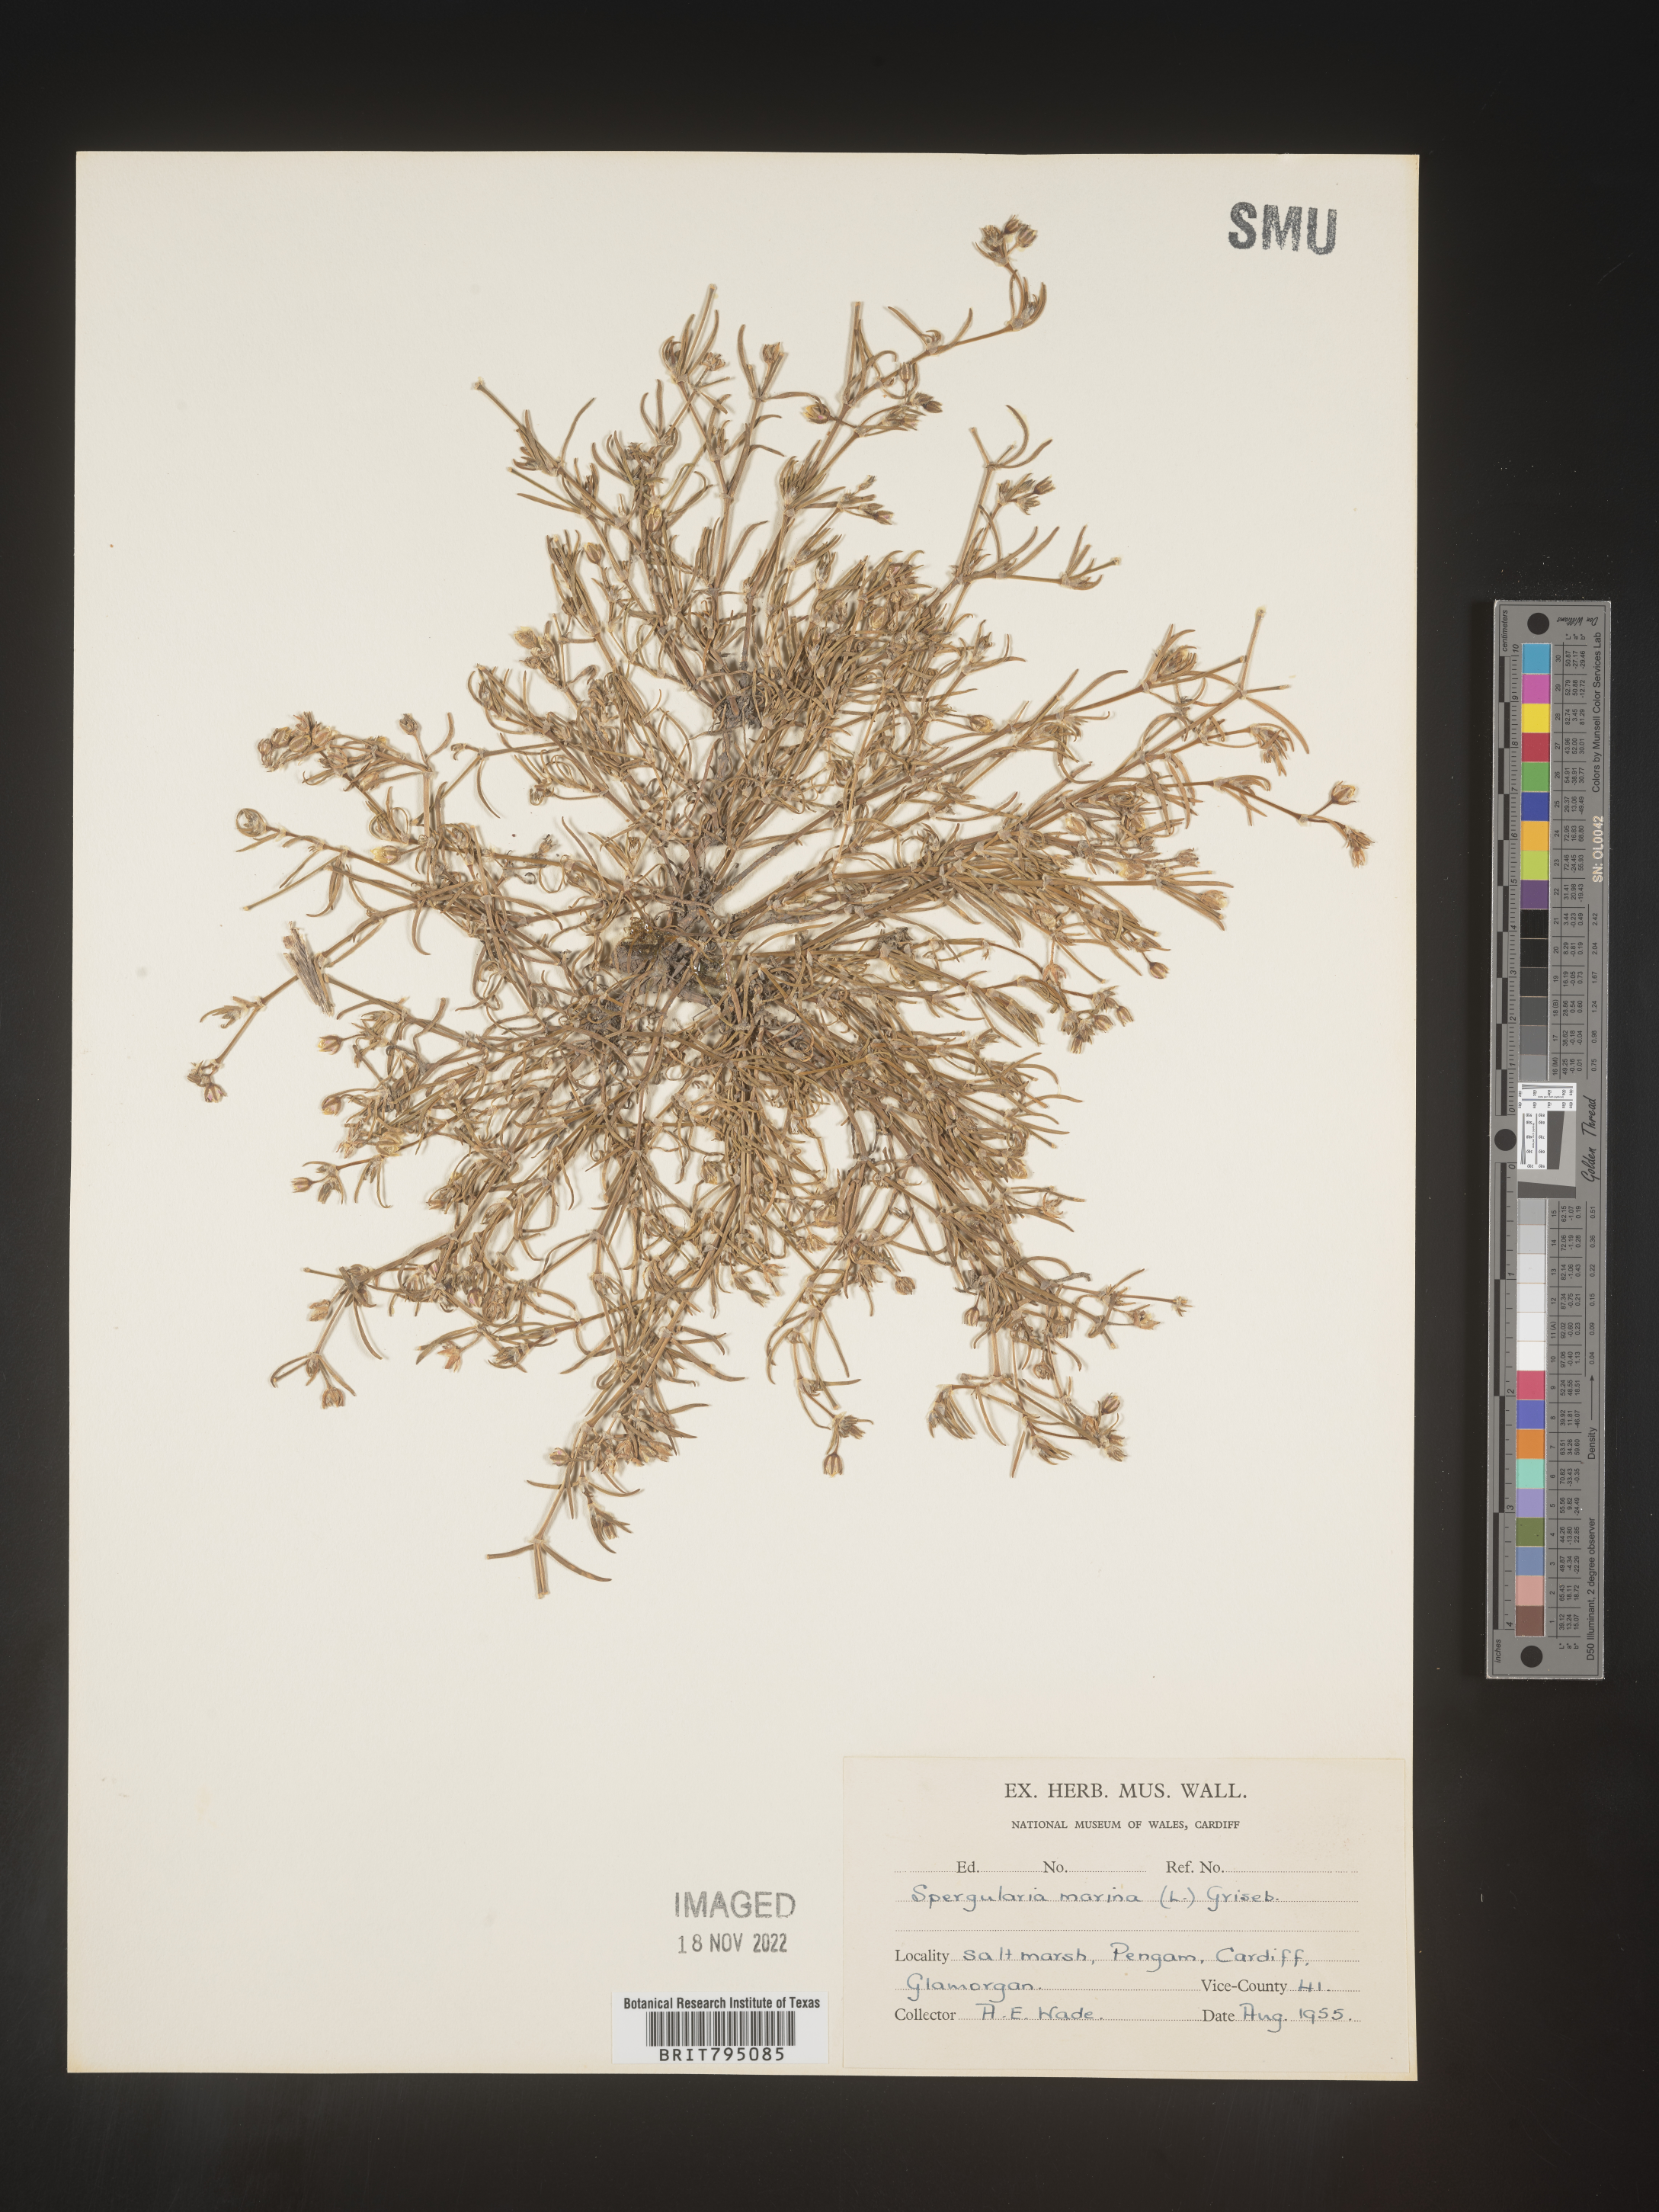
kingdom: Plantae
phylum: Tracheophyta
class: Magnoliopsida
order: Caryophyllales
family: Caryophyllaceae
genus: Spergularia
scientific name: Spergularia marina
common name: Lesser sea-spurrey
